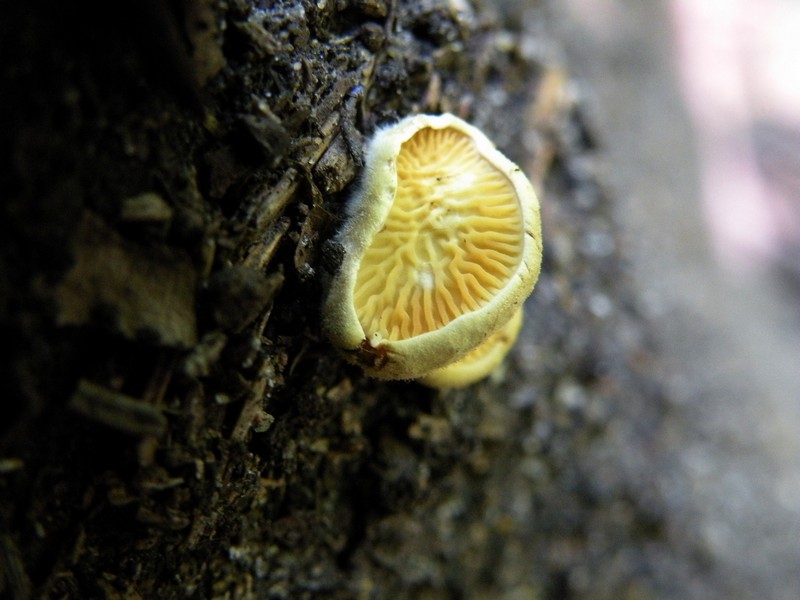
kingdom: Fungi
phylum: Basidiomycota
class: Agaricomycetes
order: Boletales
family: Tapinellaceae
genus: Tapinella
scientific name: Tapinella panuoides
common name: tømmer-viftesvamp
